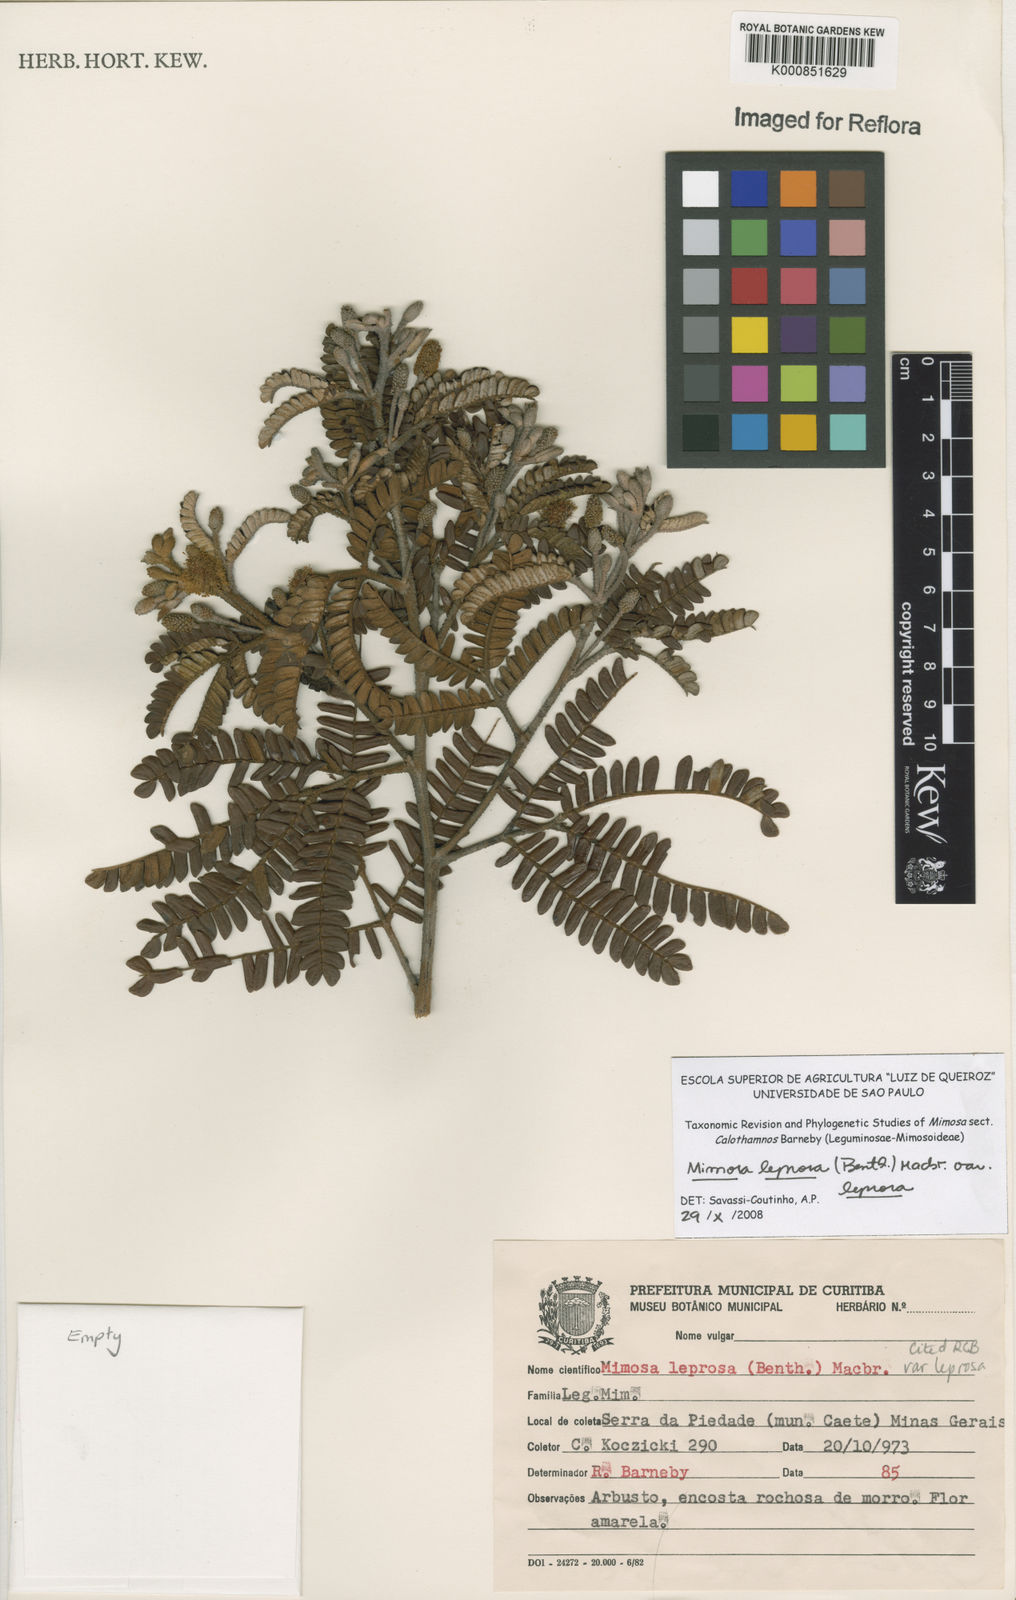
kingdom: Plantae
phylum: Tracheophyta
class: Magnoliopsida
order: Fabales
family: Fabaceae
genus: Mimosa
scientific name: Mimosa leprosa
